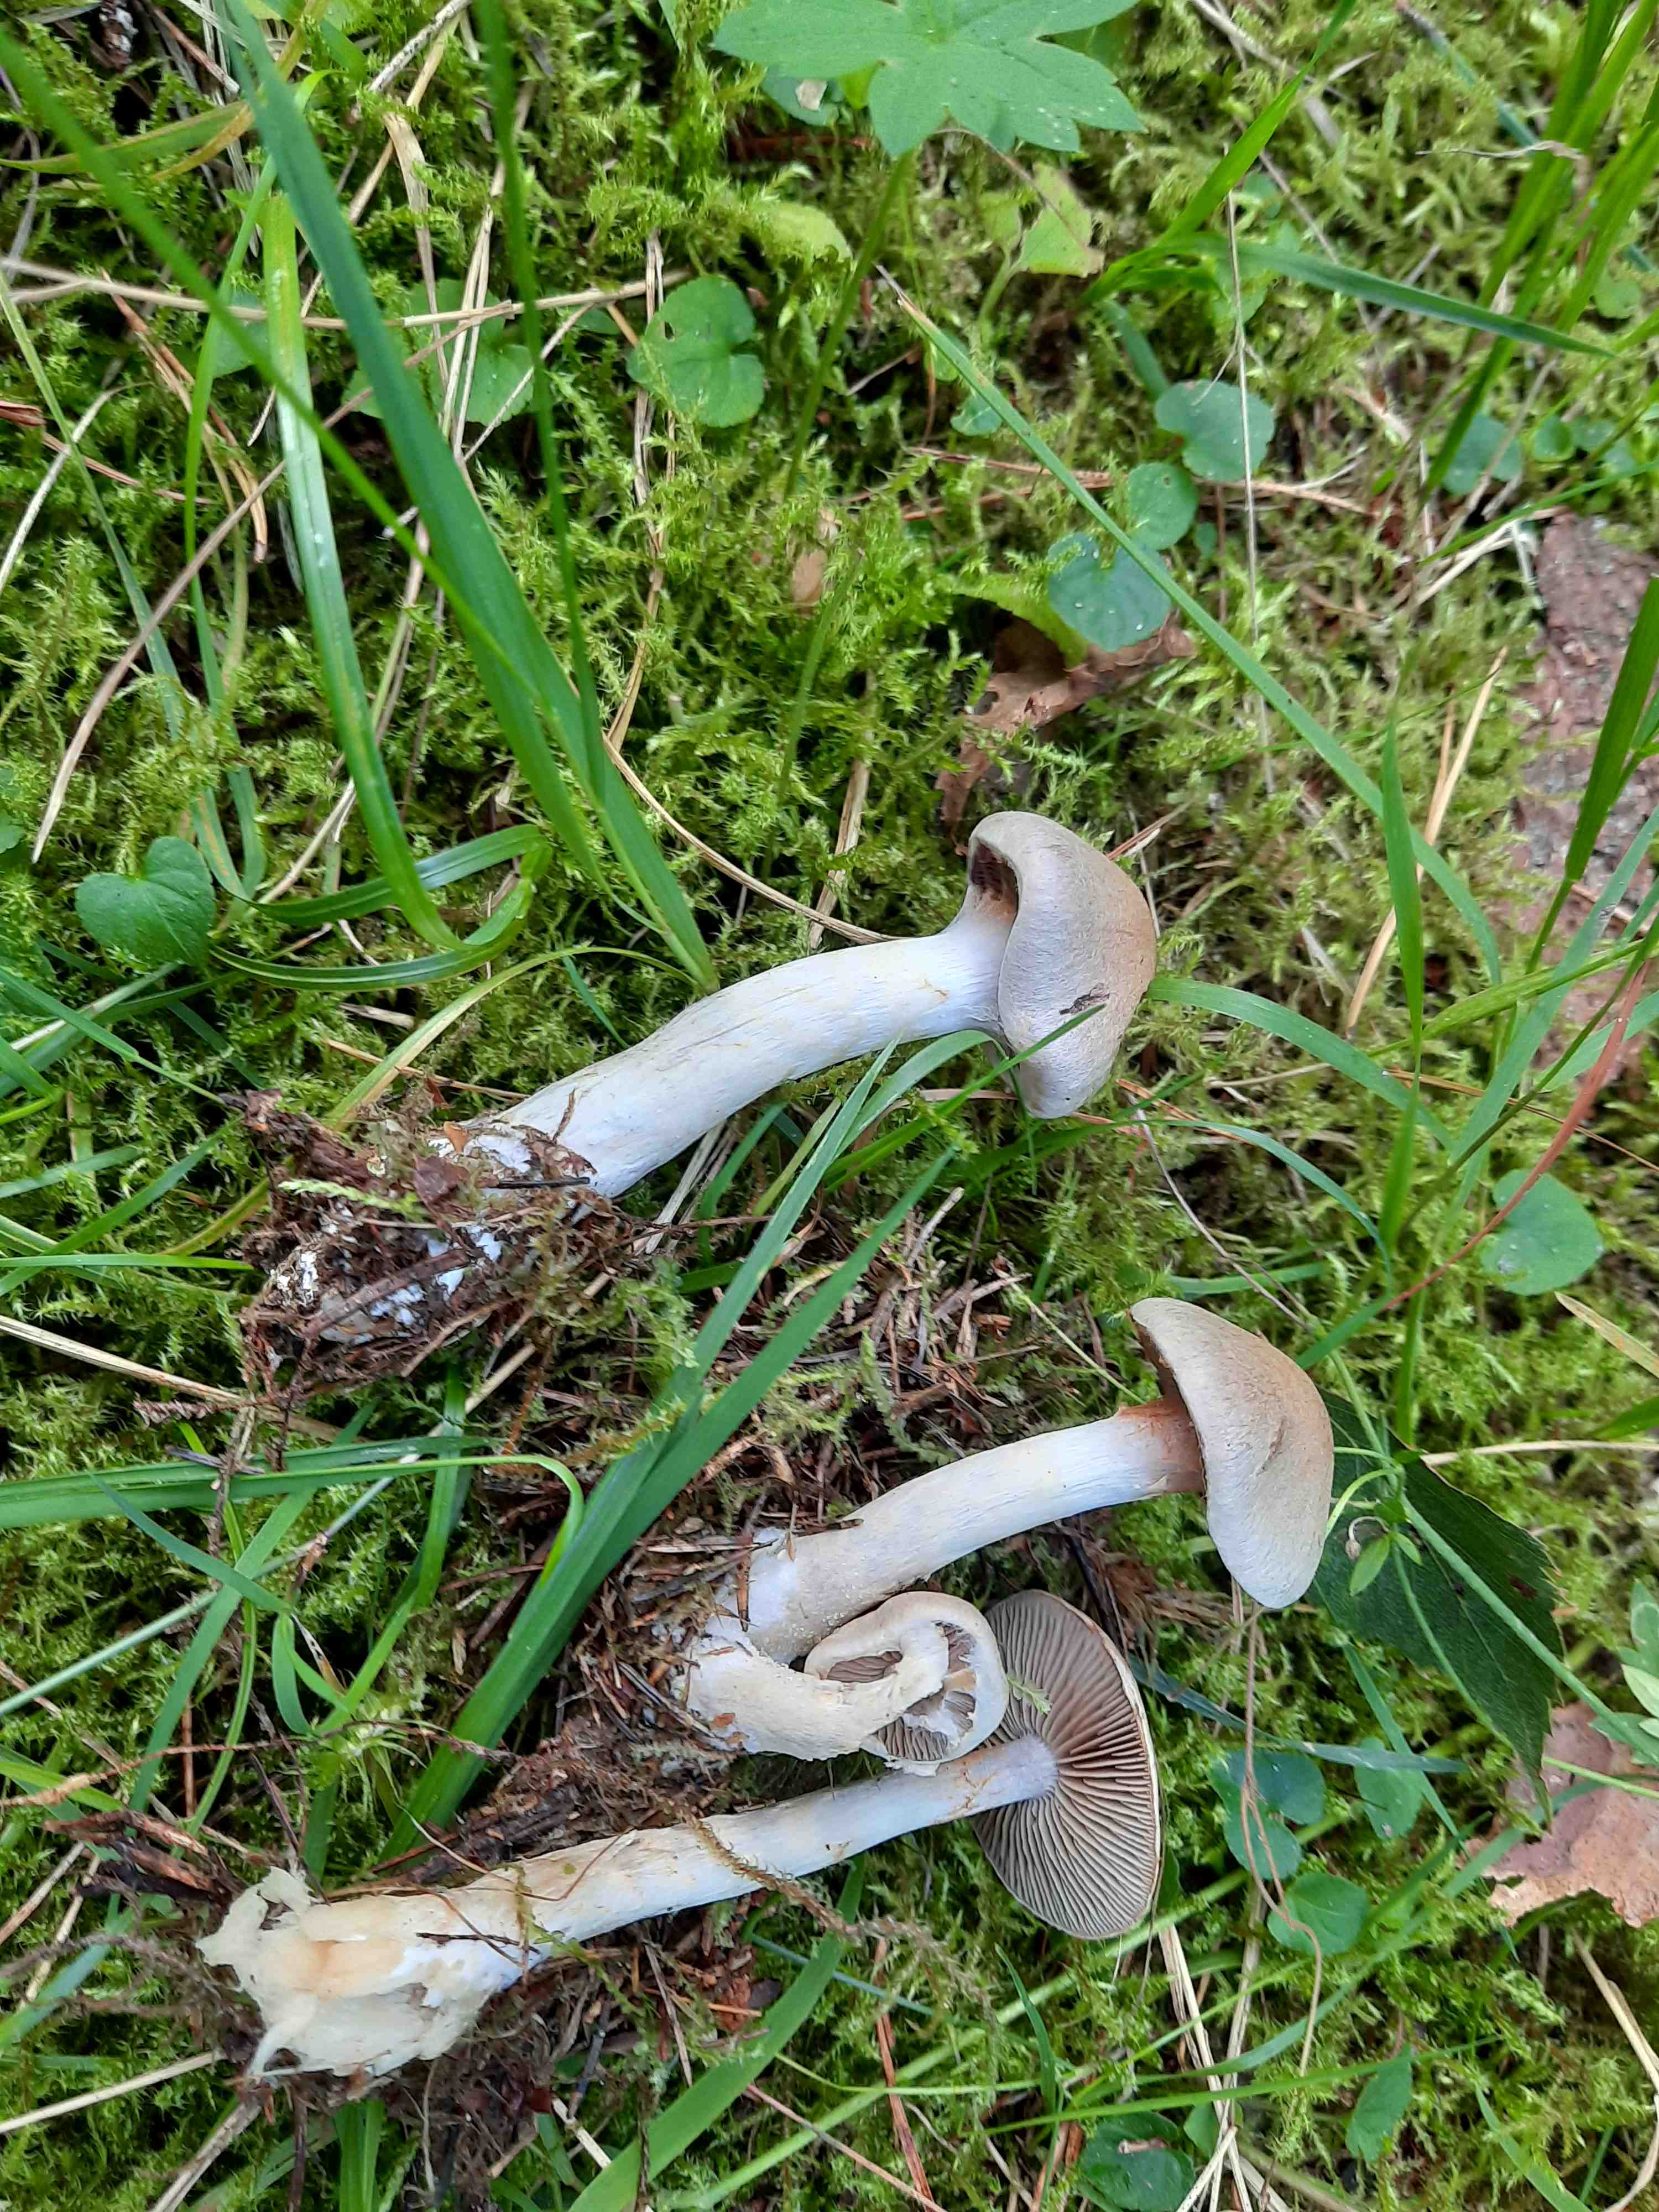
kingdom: Fungi
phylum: Basidiomycota
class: Agaricomycetes
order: Agaricales
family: Cortinariaceae
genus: Cortinarius
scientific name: Cortinarius
